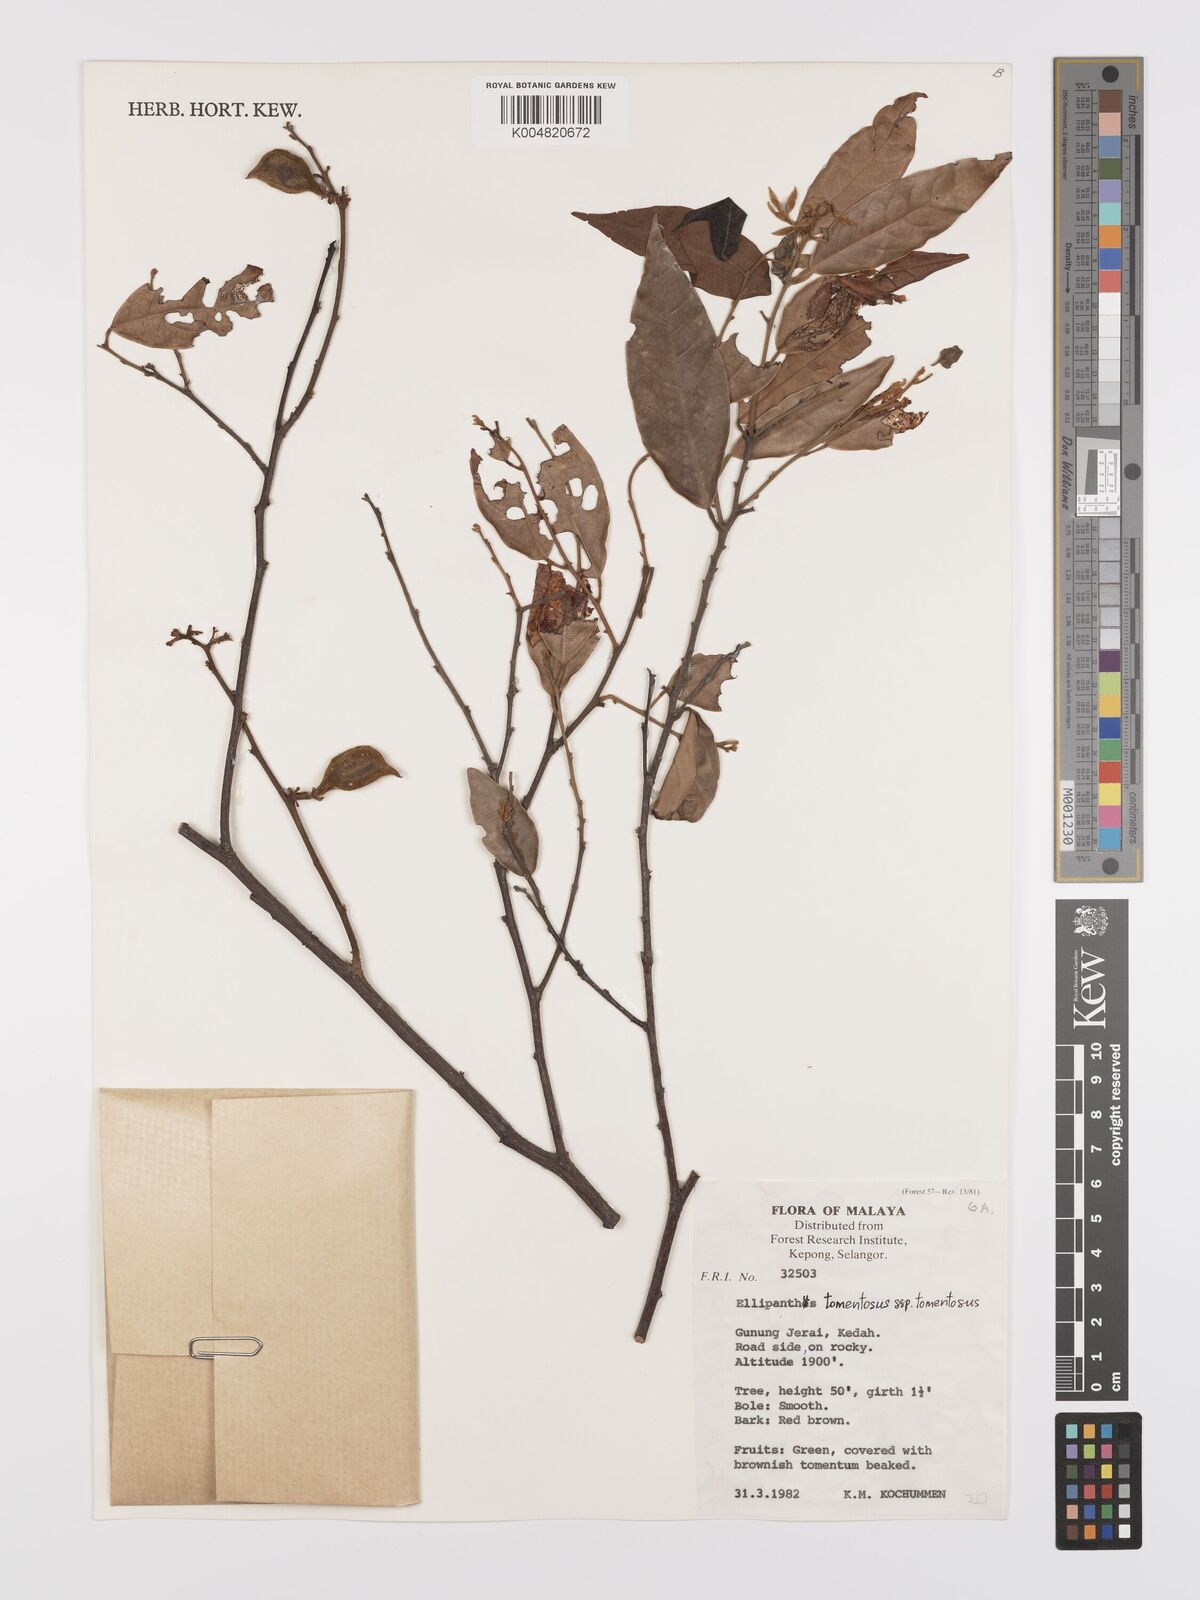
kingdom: Plantae
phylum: Tracheophyta
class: Magnoliopsida
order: Oxalidales
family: Connaraceae
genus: Ellipanthus
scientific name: Ellipanthus tomentosus
